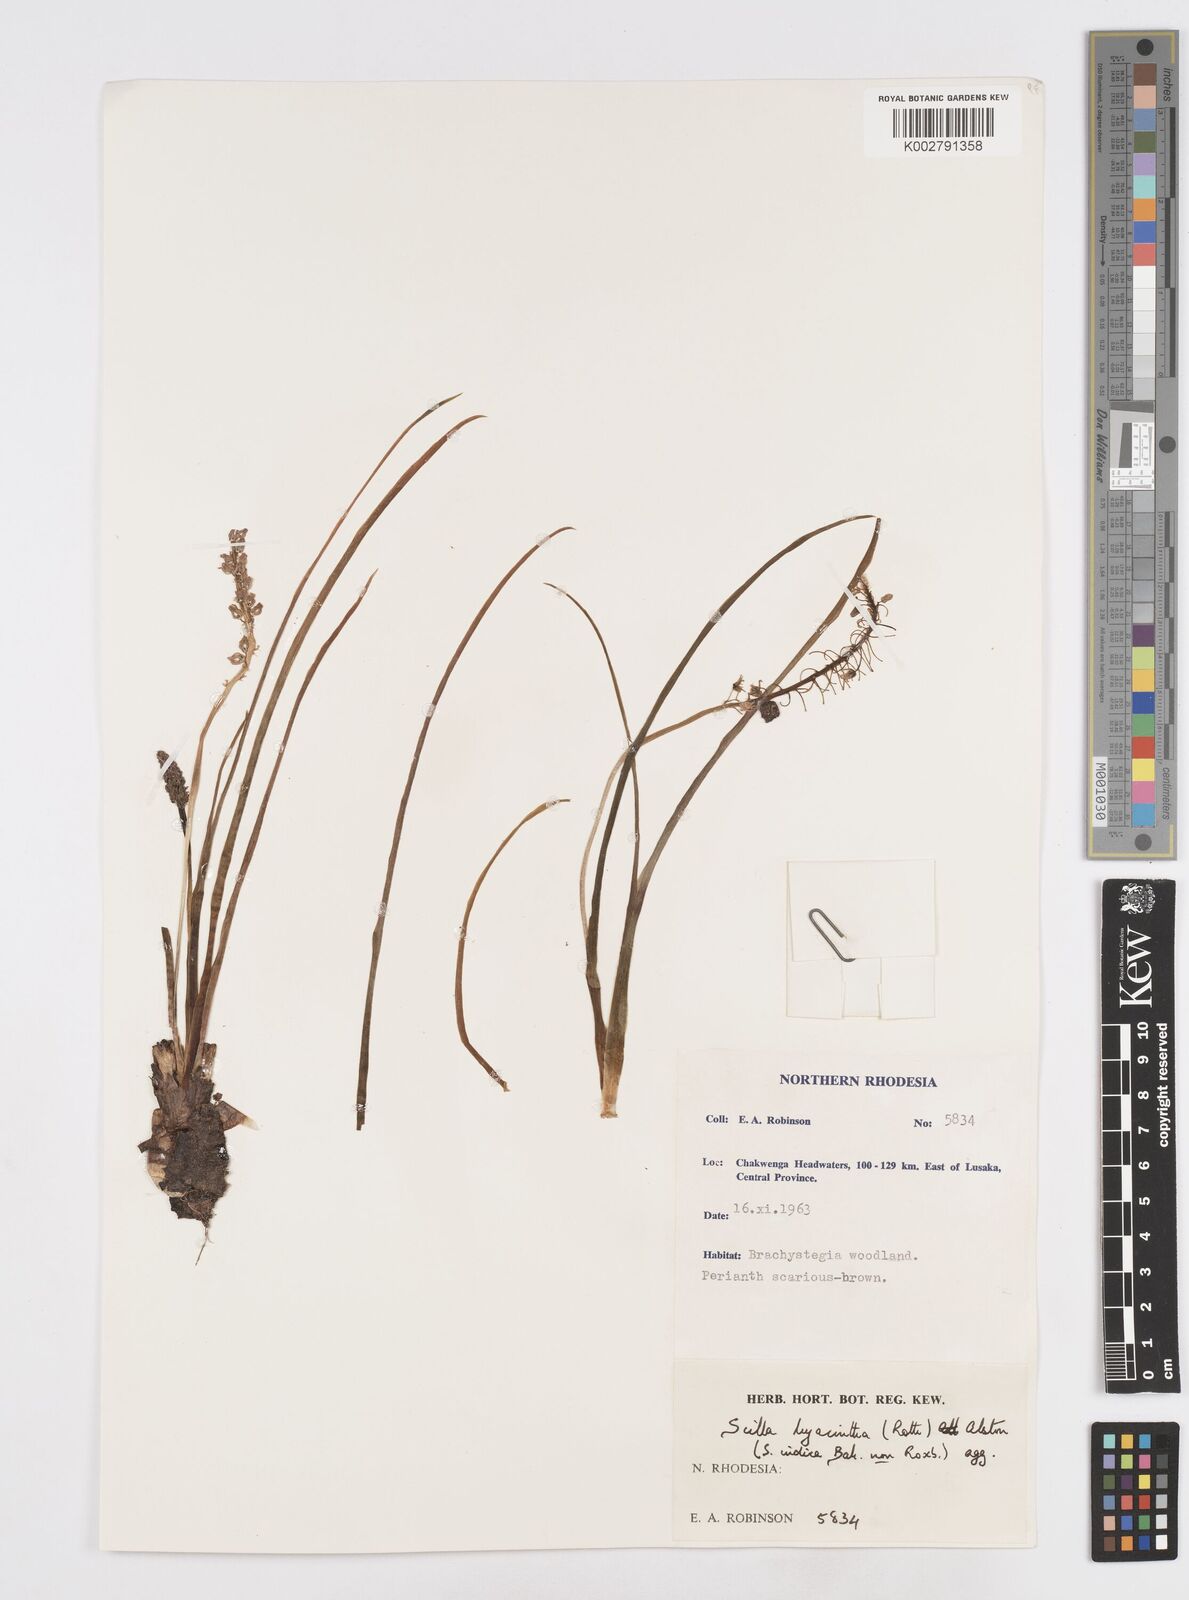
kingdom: Plantae
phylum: Tracheophyta
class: Liliopsida
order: Asparagales
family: Asparagaceae
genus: Ledebouria
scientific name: Ledebouria revoluta
